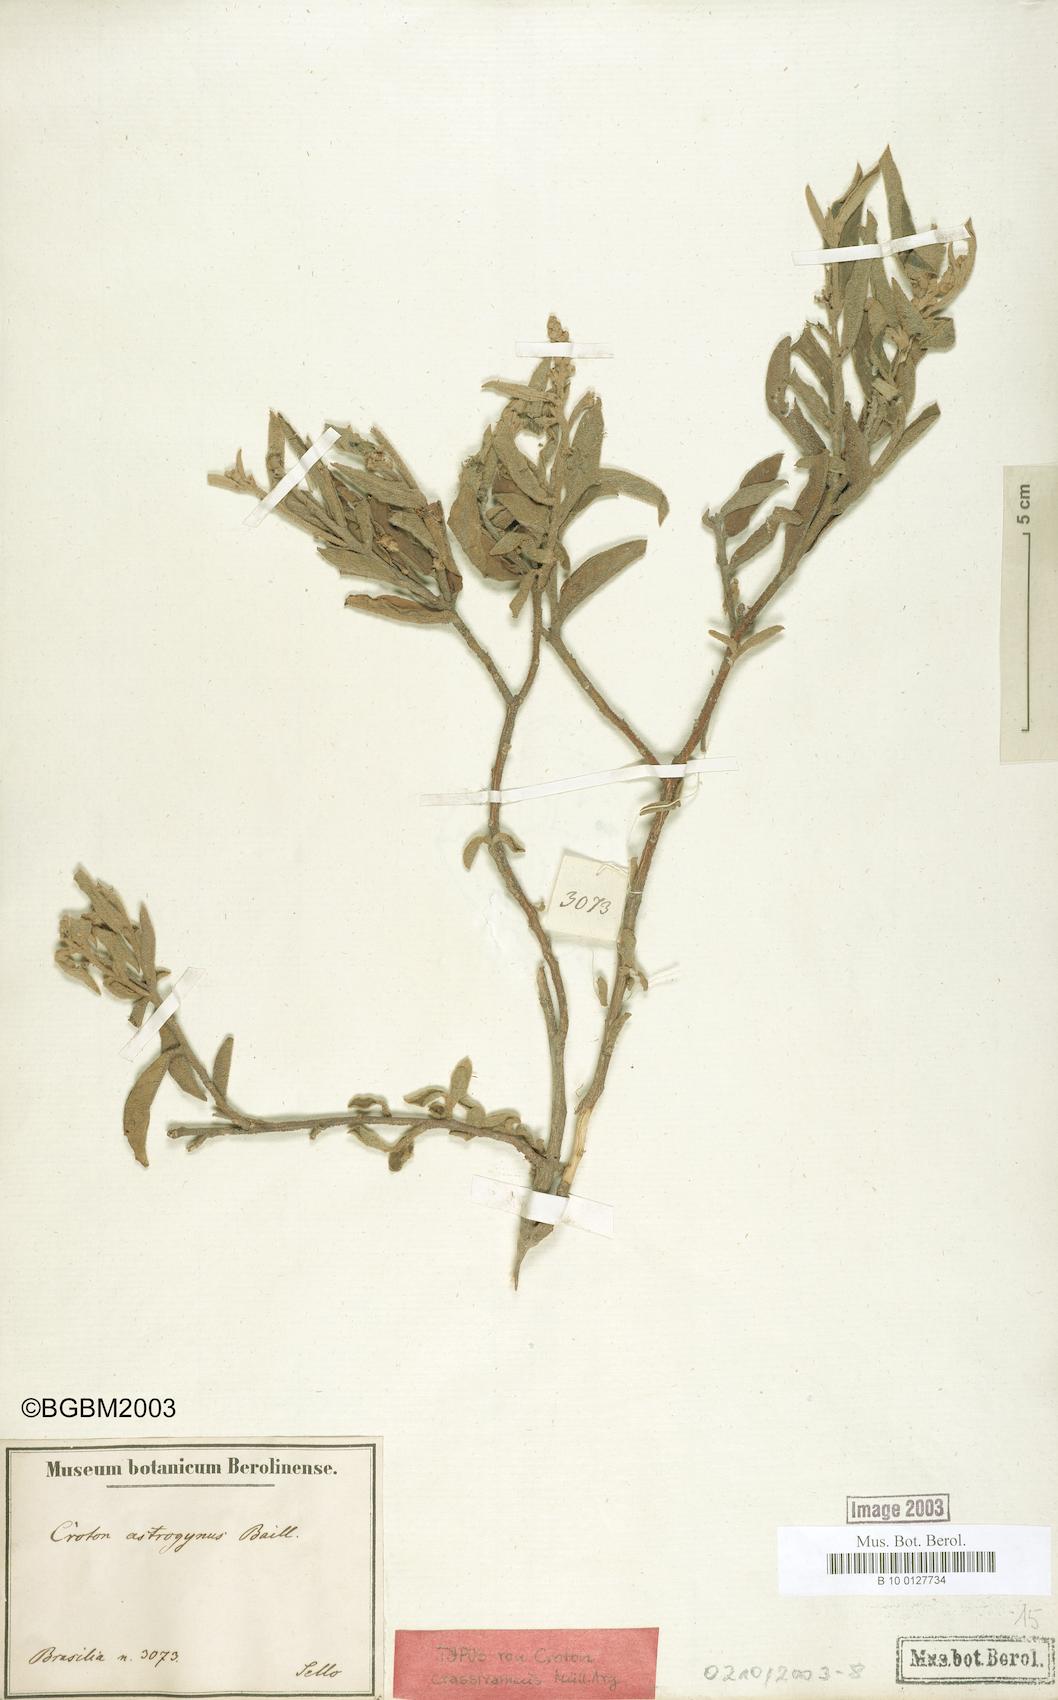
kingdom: Plantae
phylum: Tracheophyta
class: Magnoliopsida
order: Malpighiales
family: Euphorbiaceae
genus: Croton
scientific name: Croton lanatus
